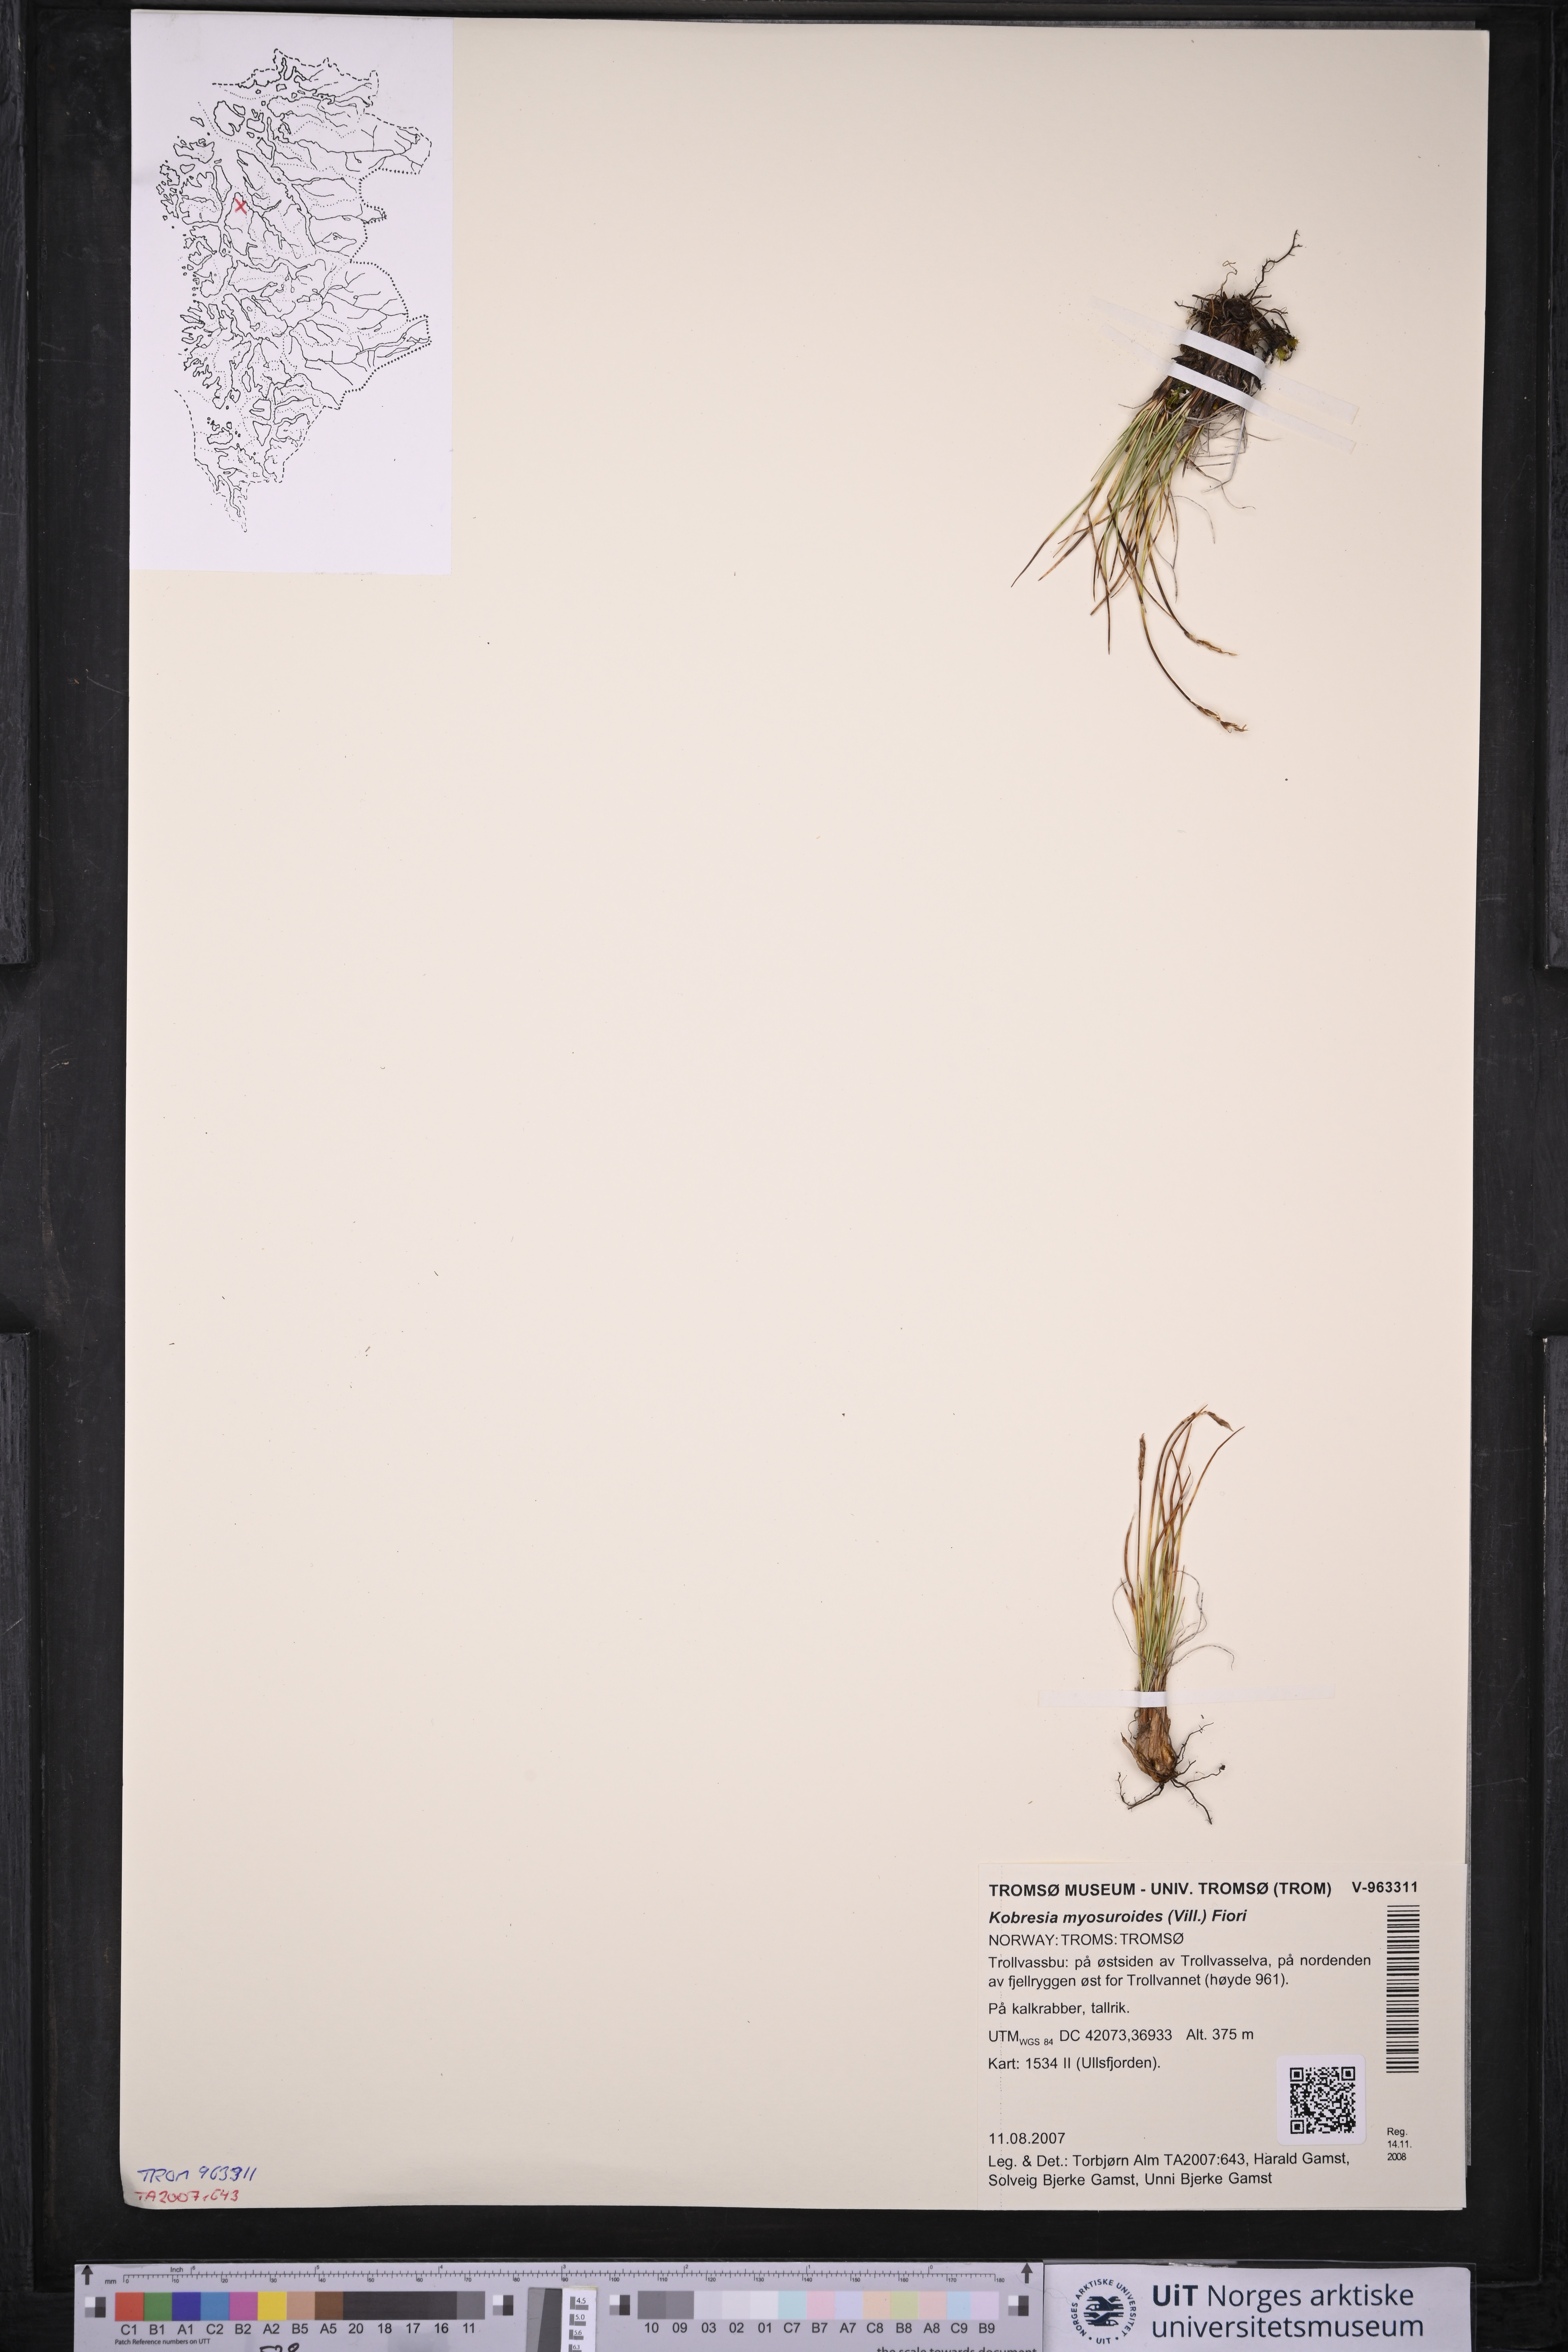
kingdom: Plantae
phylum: Tracheophyta
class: Liliopsida
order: Poales
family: Cyperaceae
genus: Carex
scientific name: Carex myosuroides
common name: Bellard's bog sedge
